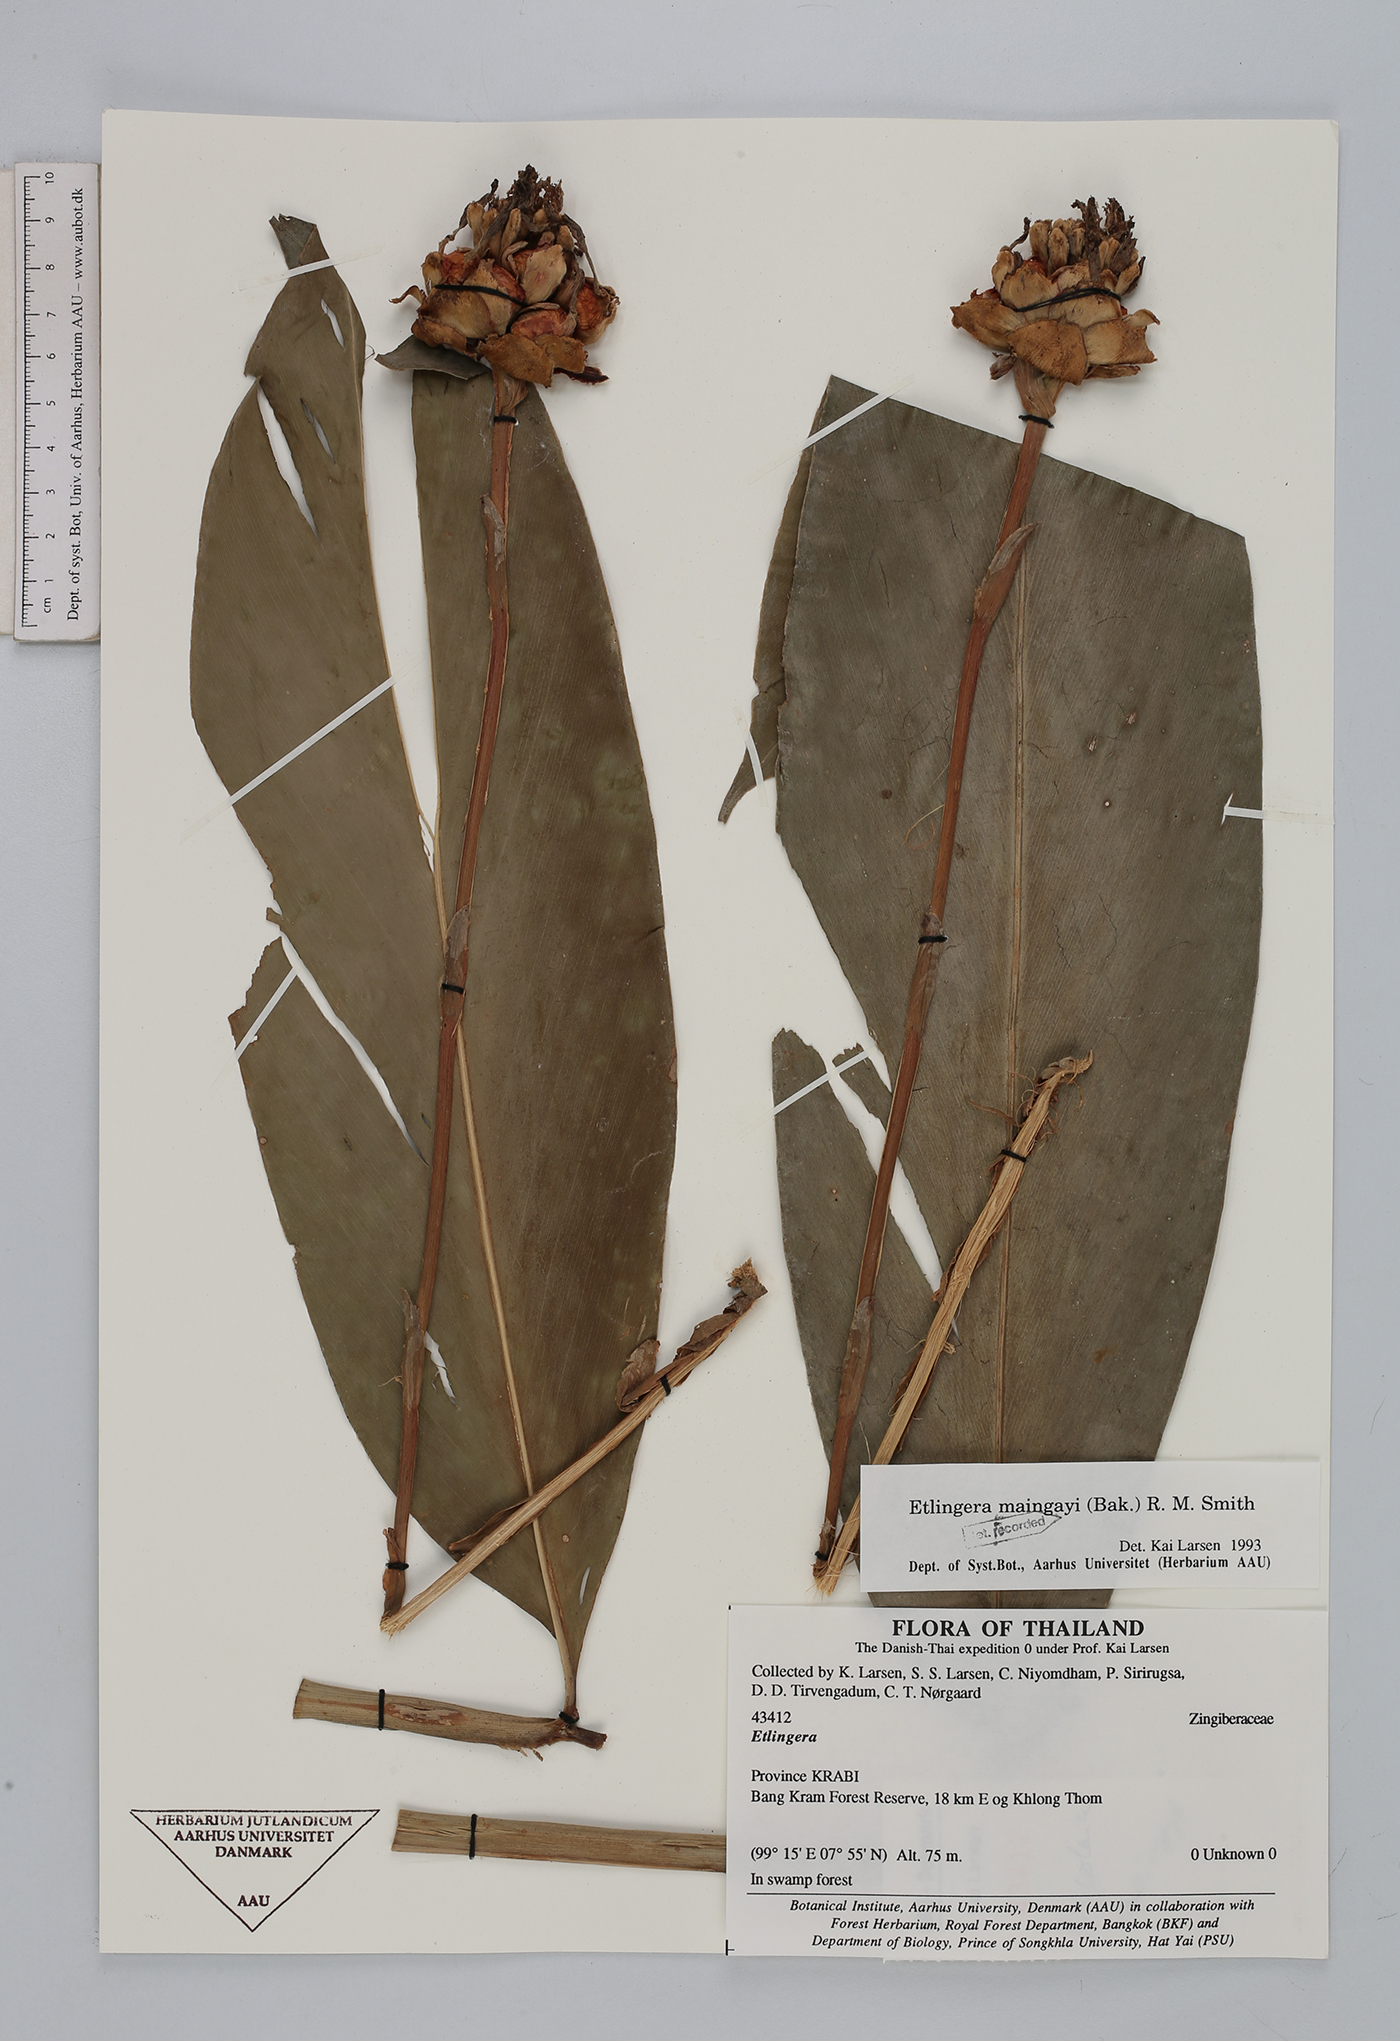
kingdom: Plantae
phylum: Tracheophyta
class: Liliopsida
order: Zingiberales
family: Zingiberaceae
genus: Etlingera
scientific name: Etlingera maingayi
